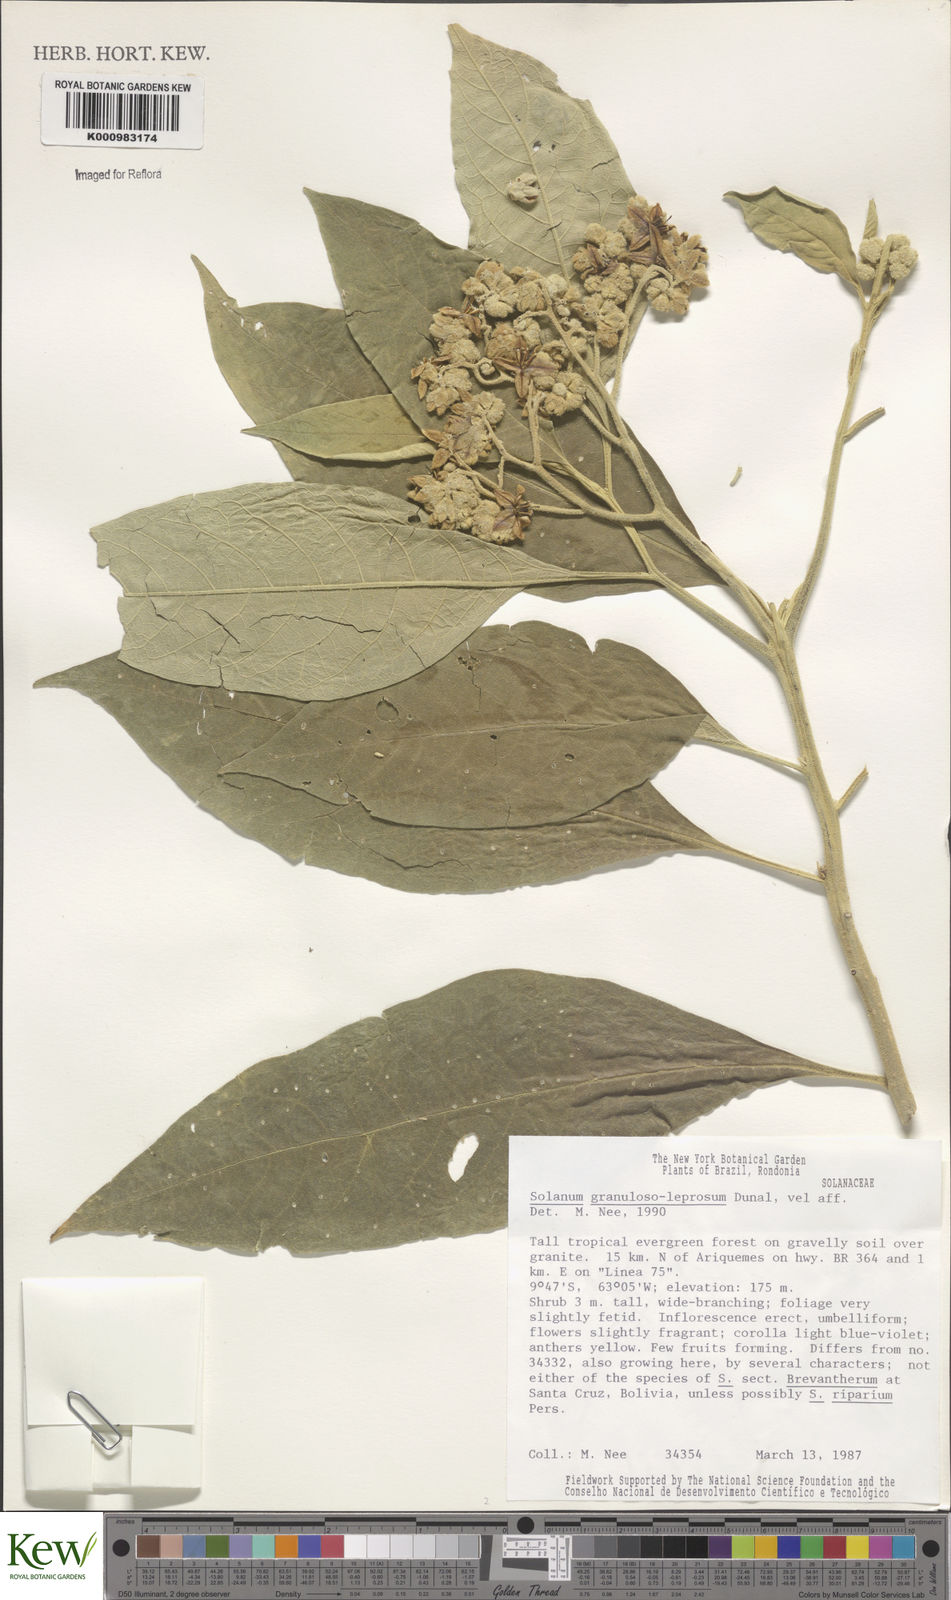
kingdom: Plantae
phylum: Tracheophyta
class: Magnoliopsida
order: Solanales
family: Solanaceae
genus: Solanum
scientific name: Solanum granulosoleprosum
